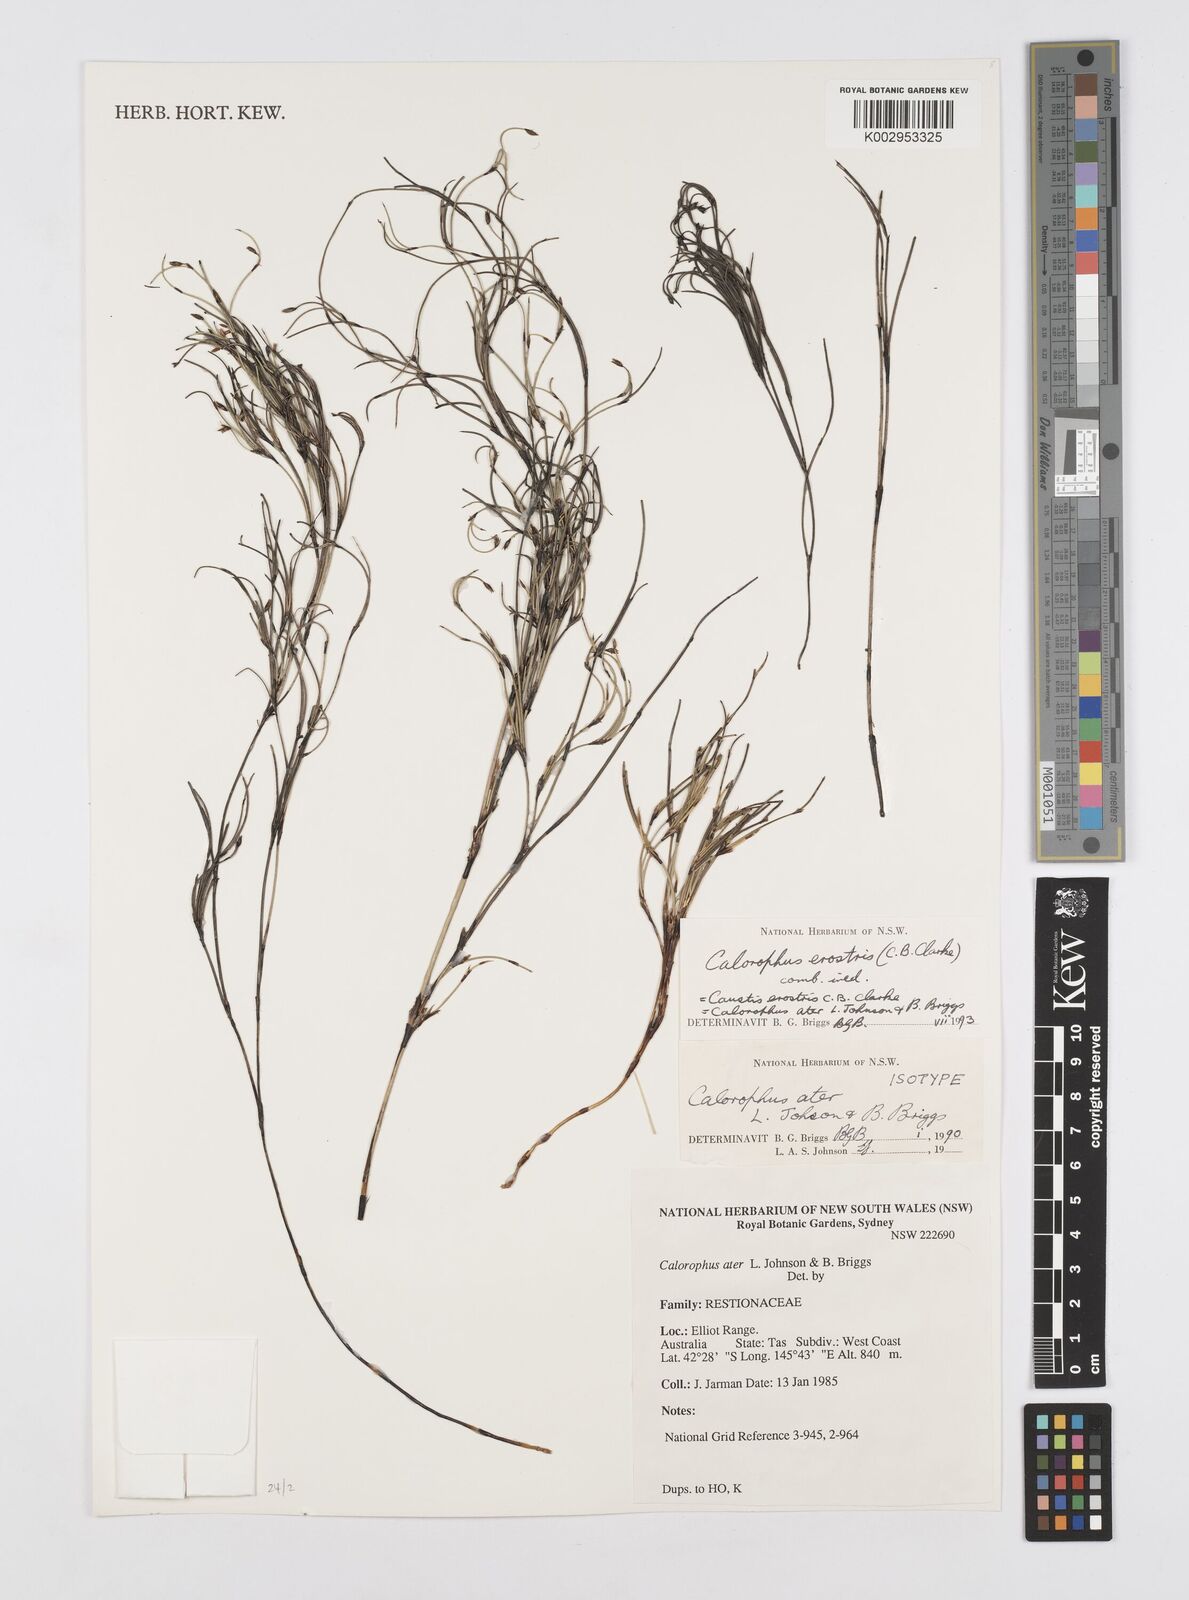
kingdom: Plantae
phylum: Tracheophyta
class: Liliopsida
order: Poales
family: Restionaceae
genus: Calorophus
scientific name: Calorophus erostris
